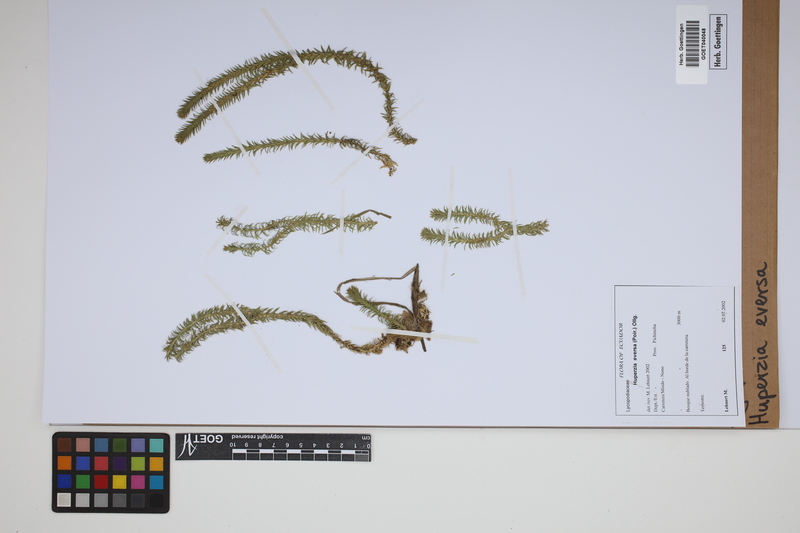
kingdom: Plantae
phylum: Tracheophyta
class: Lycopodiopsida
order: Lycopodiales
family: Lycopodiaceae
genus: Phlegmariurus
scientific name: Phlegmariurus eversus
